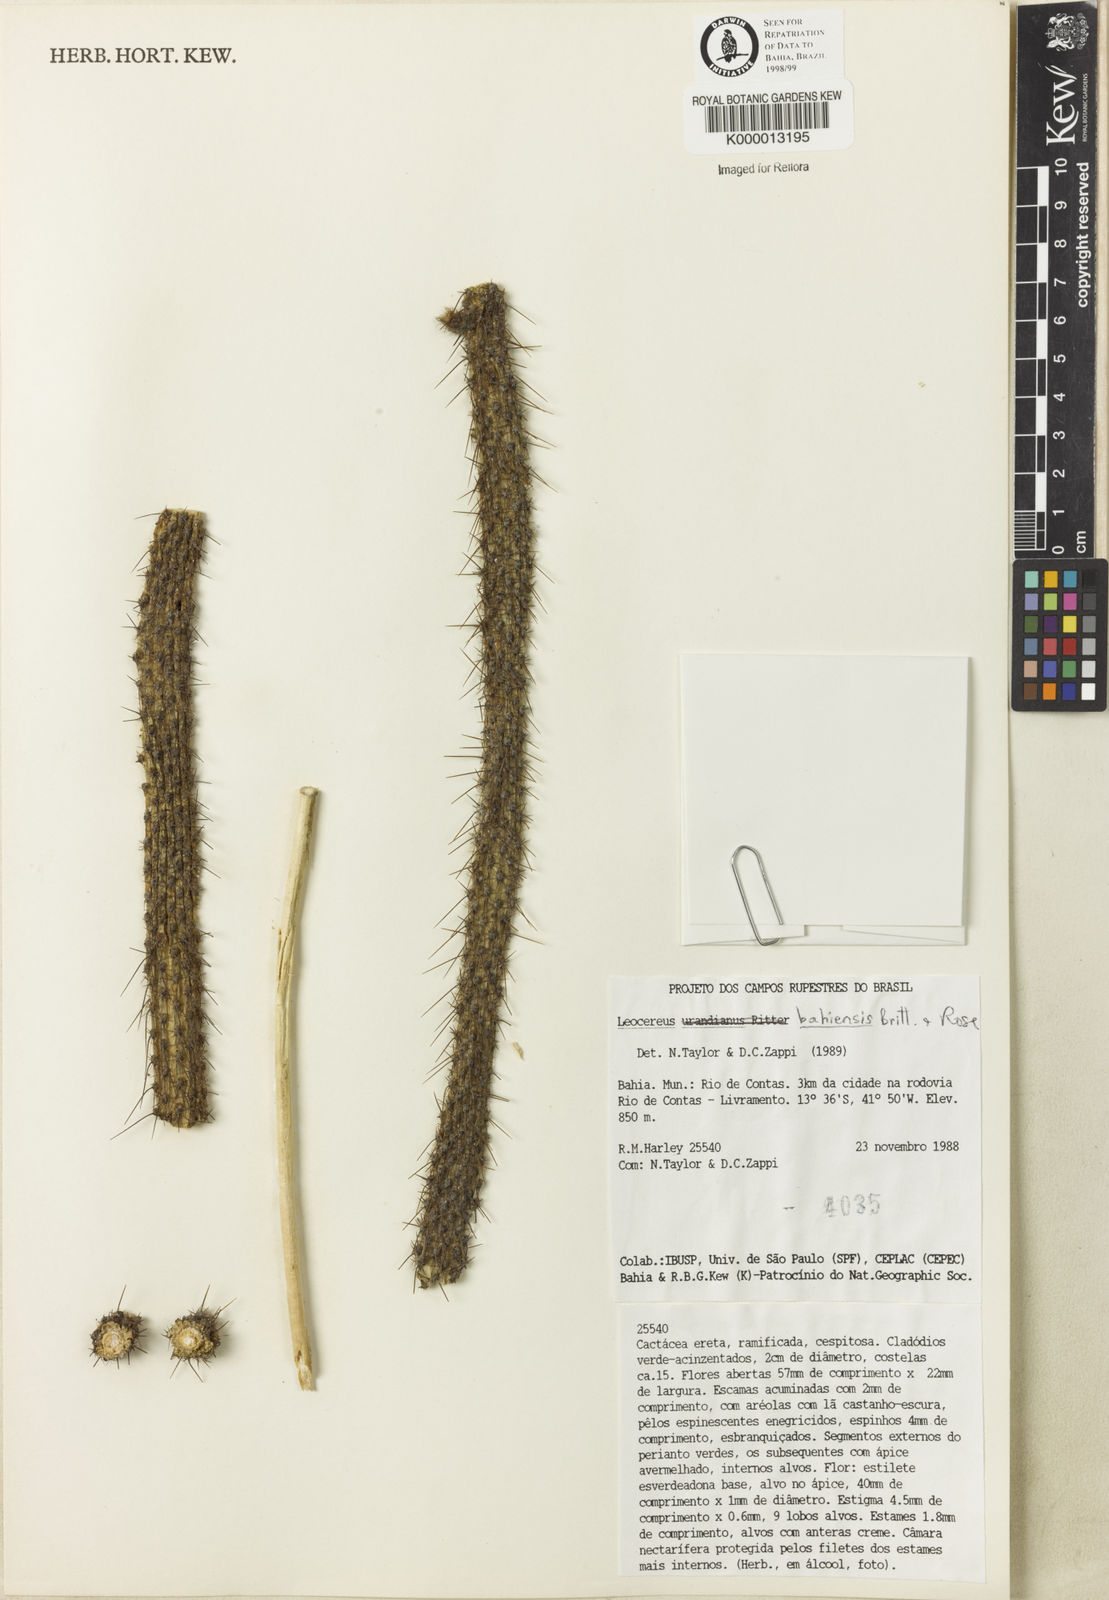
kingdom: Plantae
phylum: Tracheophyta
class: Magnoliopsida
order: Caryophyllales
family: Cactaceae
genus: Leocereus
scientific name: Leocereus bahiensis
